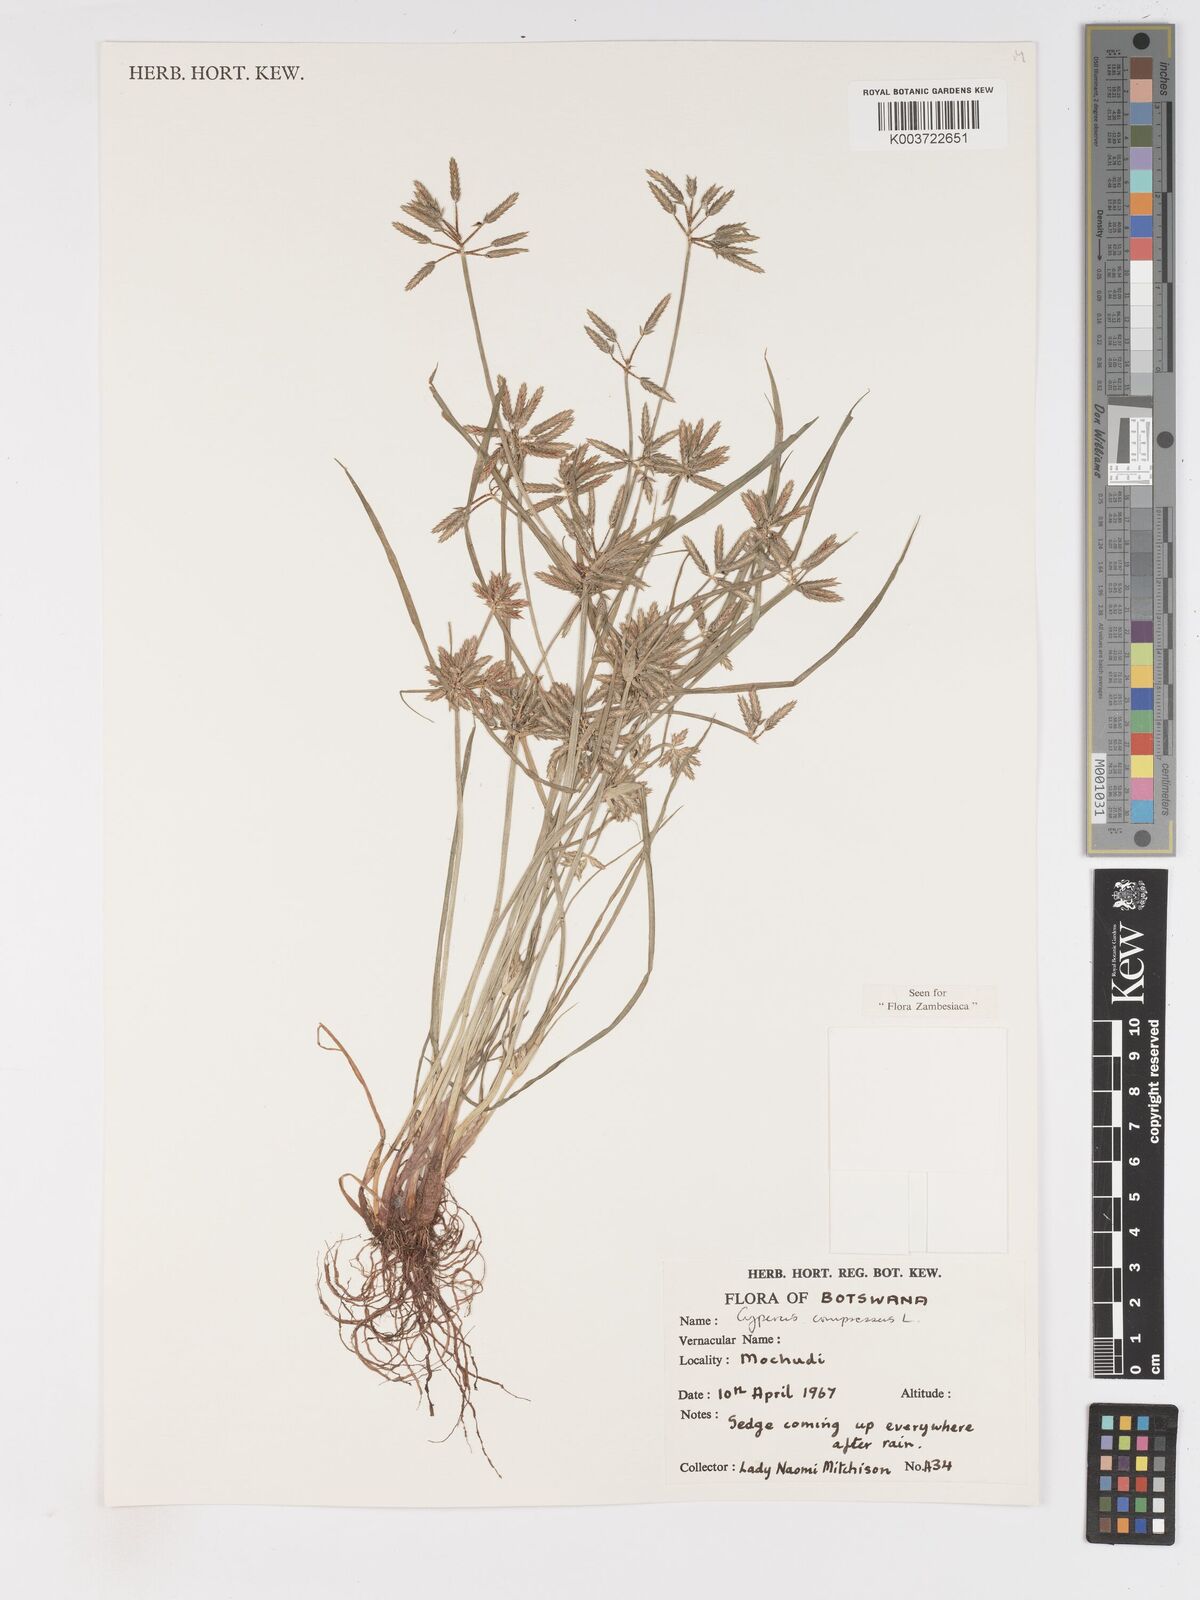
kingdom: Plantae
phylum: Tracheophyta
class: Liliopsida
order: Poales
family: Cyperaceae
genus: Cyperus
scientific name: Cyperus compressus
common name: Poorland flatsedge
